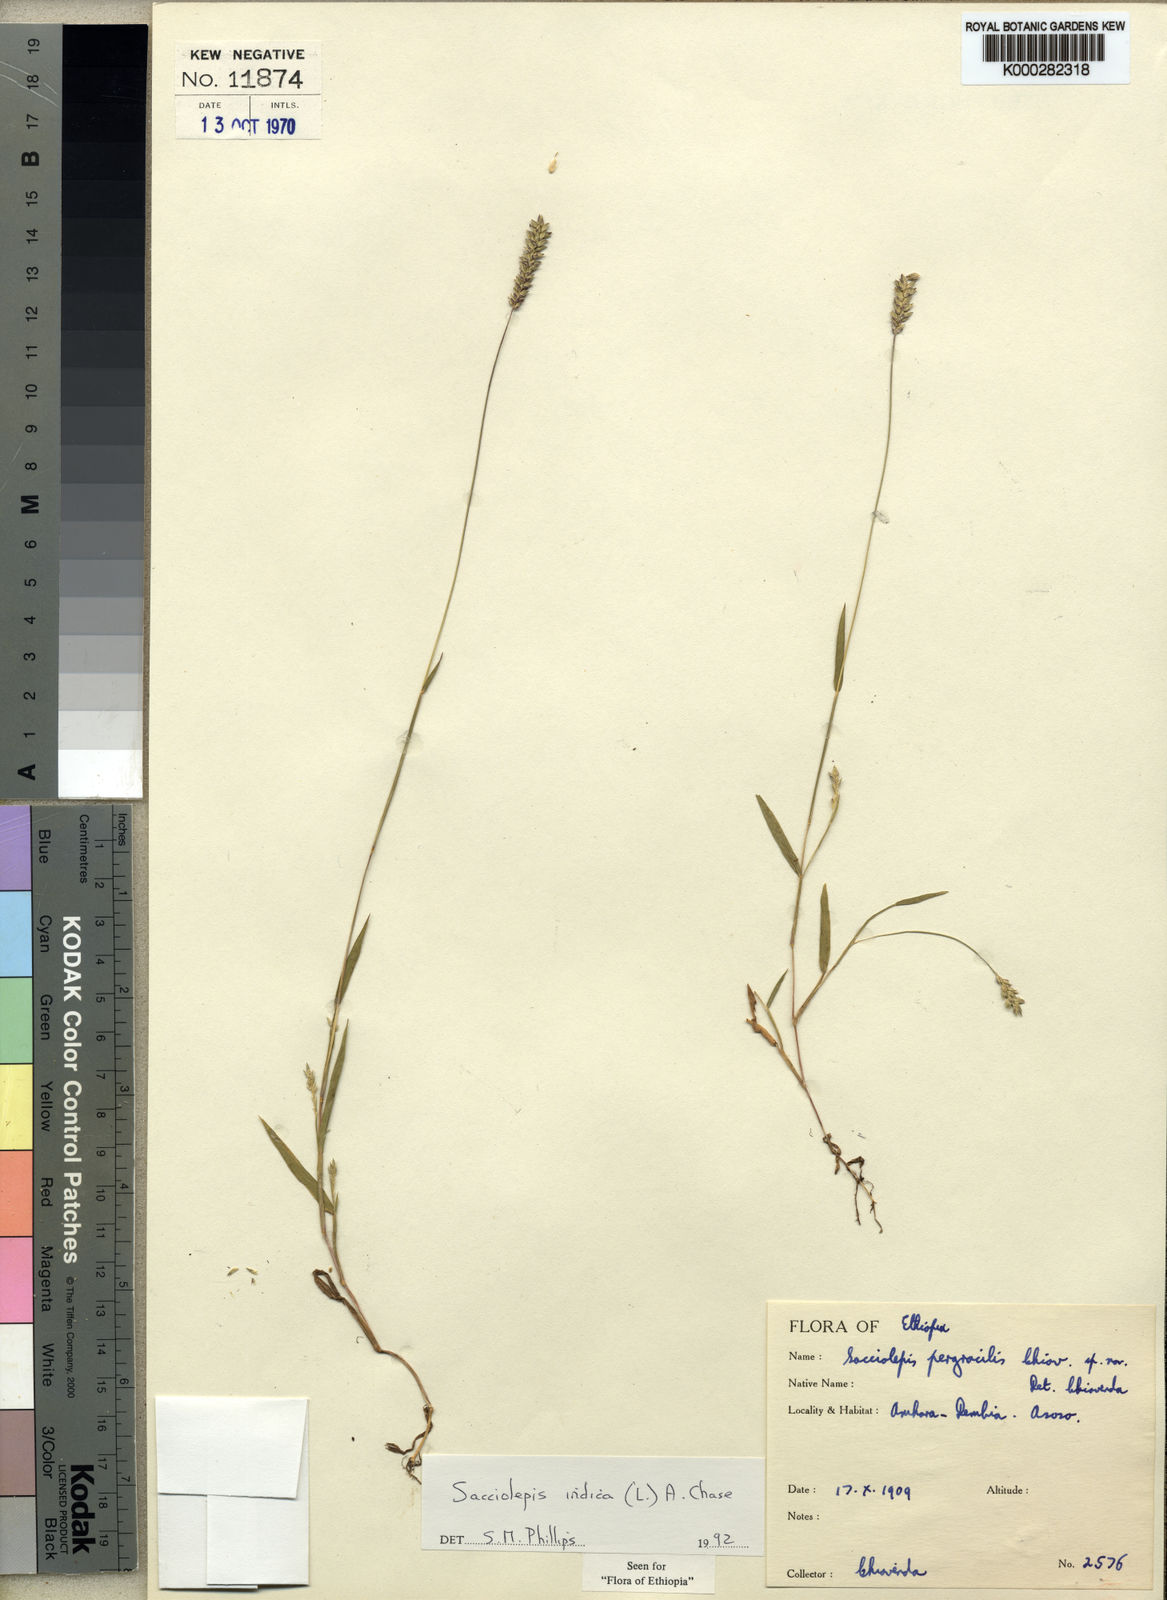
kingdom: Plantae
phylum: Tracheophyta
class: Liliopsida
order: Poales
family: Poaceae
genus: Sacciolepis
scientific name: Sacciolepis indica
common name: Glenwoodgrass
